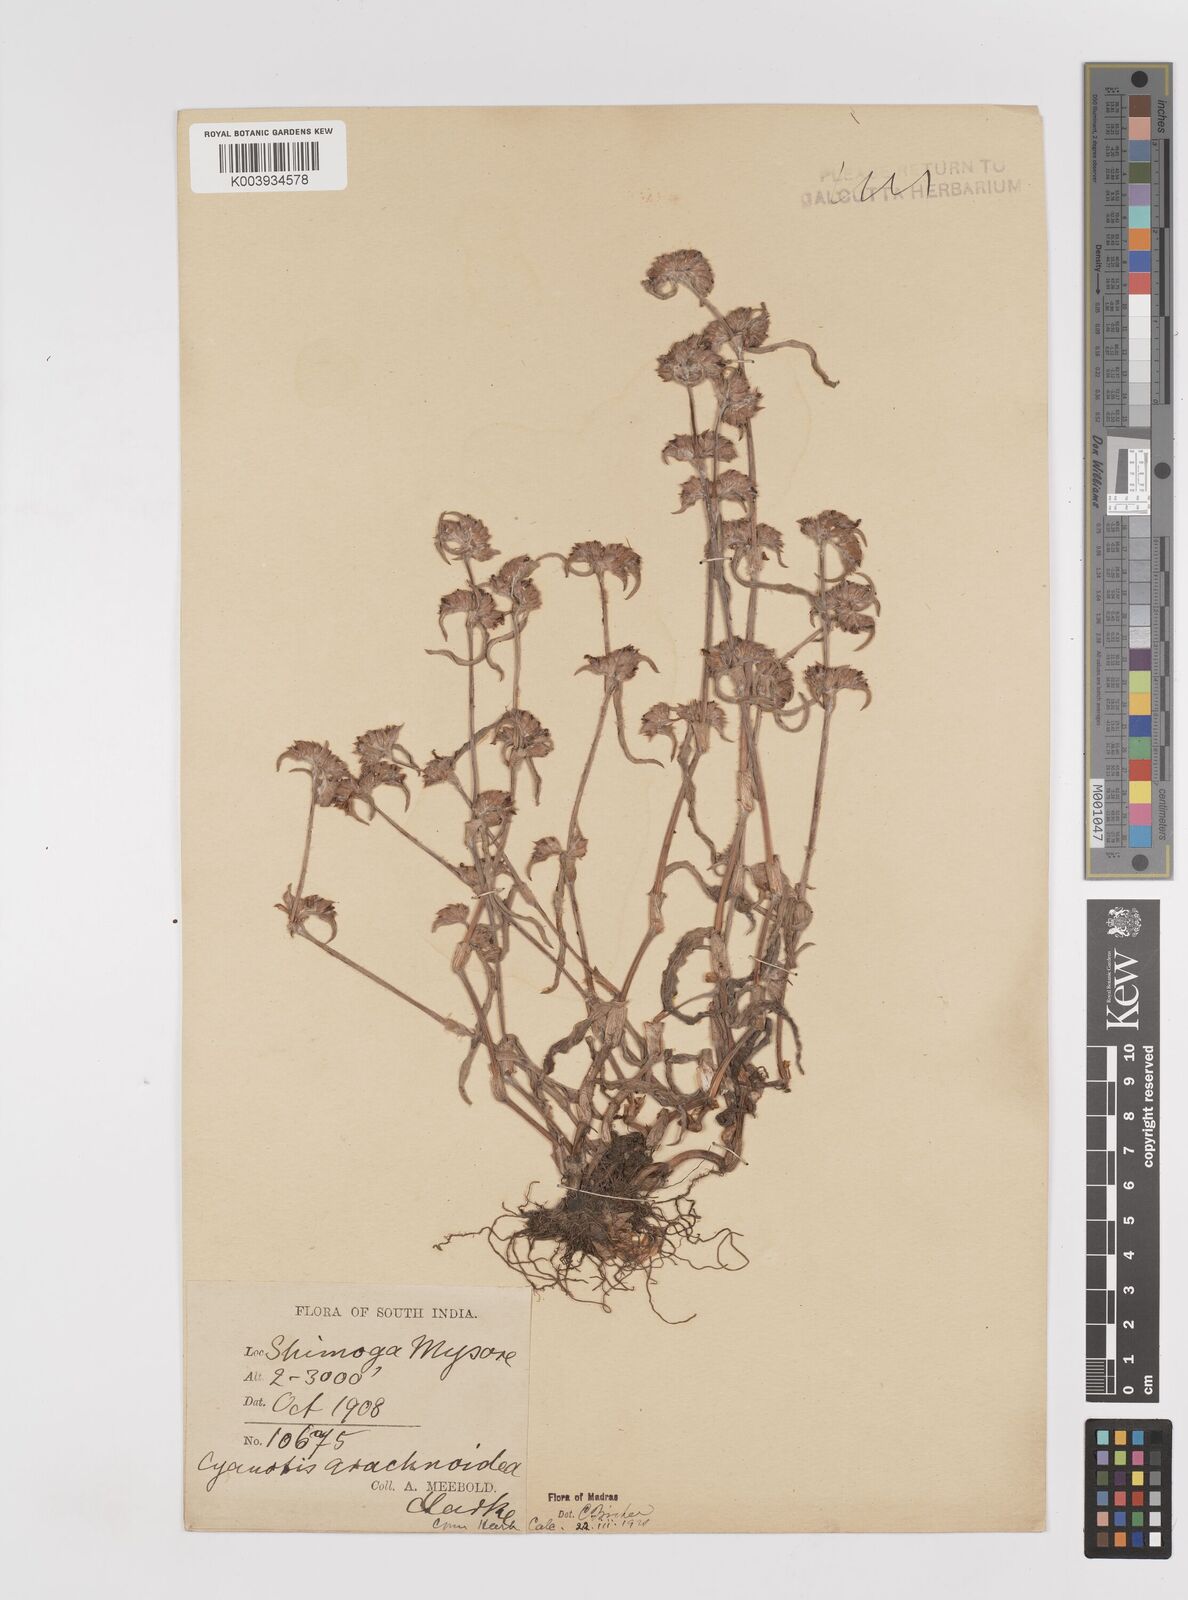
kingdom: Plantae
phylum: Tracheophyta
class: Liliopsida
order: Commelinales
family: Commelinaceae
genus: Cyanotis
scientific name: Cyanotis arachnoidea
